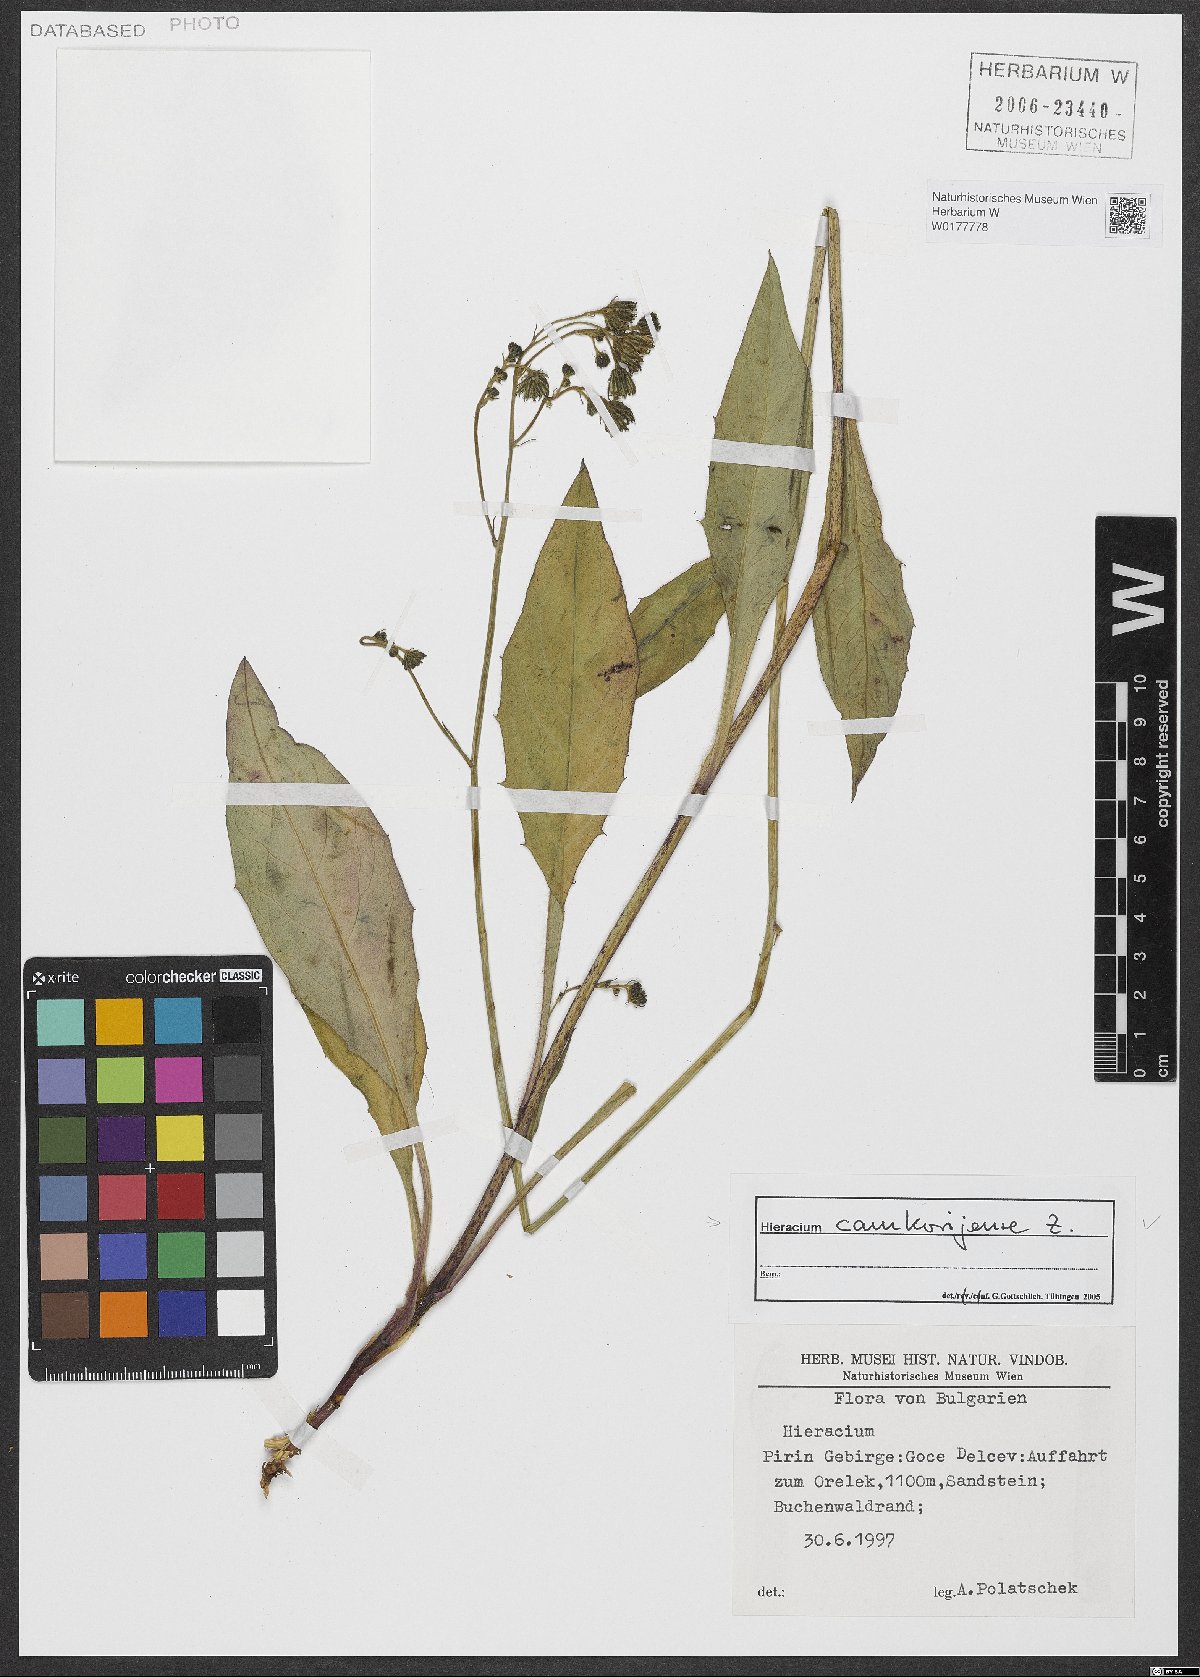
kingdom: Plantae
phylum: Tracheophyta
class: Magnoliopsida
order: Asterales
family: Asteraceae
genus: Hieracium
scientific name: Hieracium camkorijense
